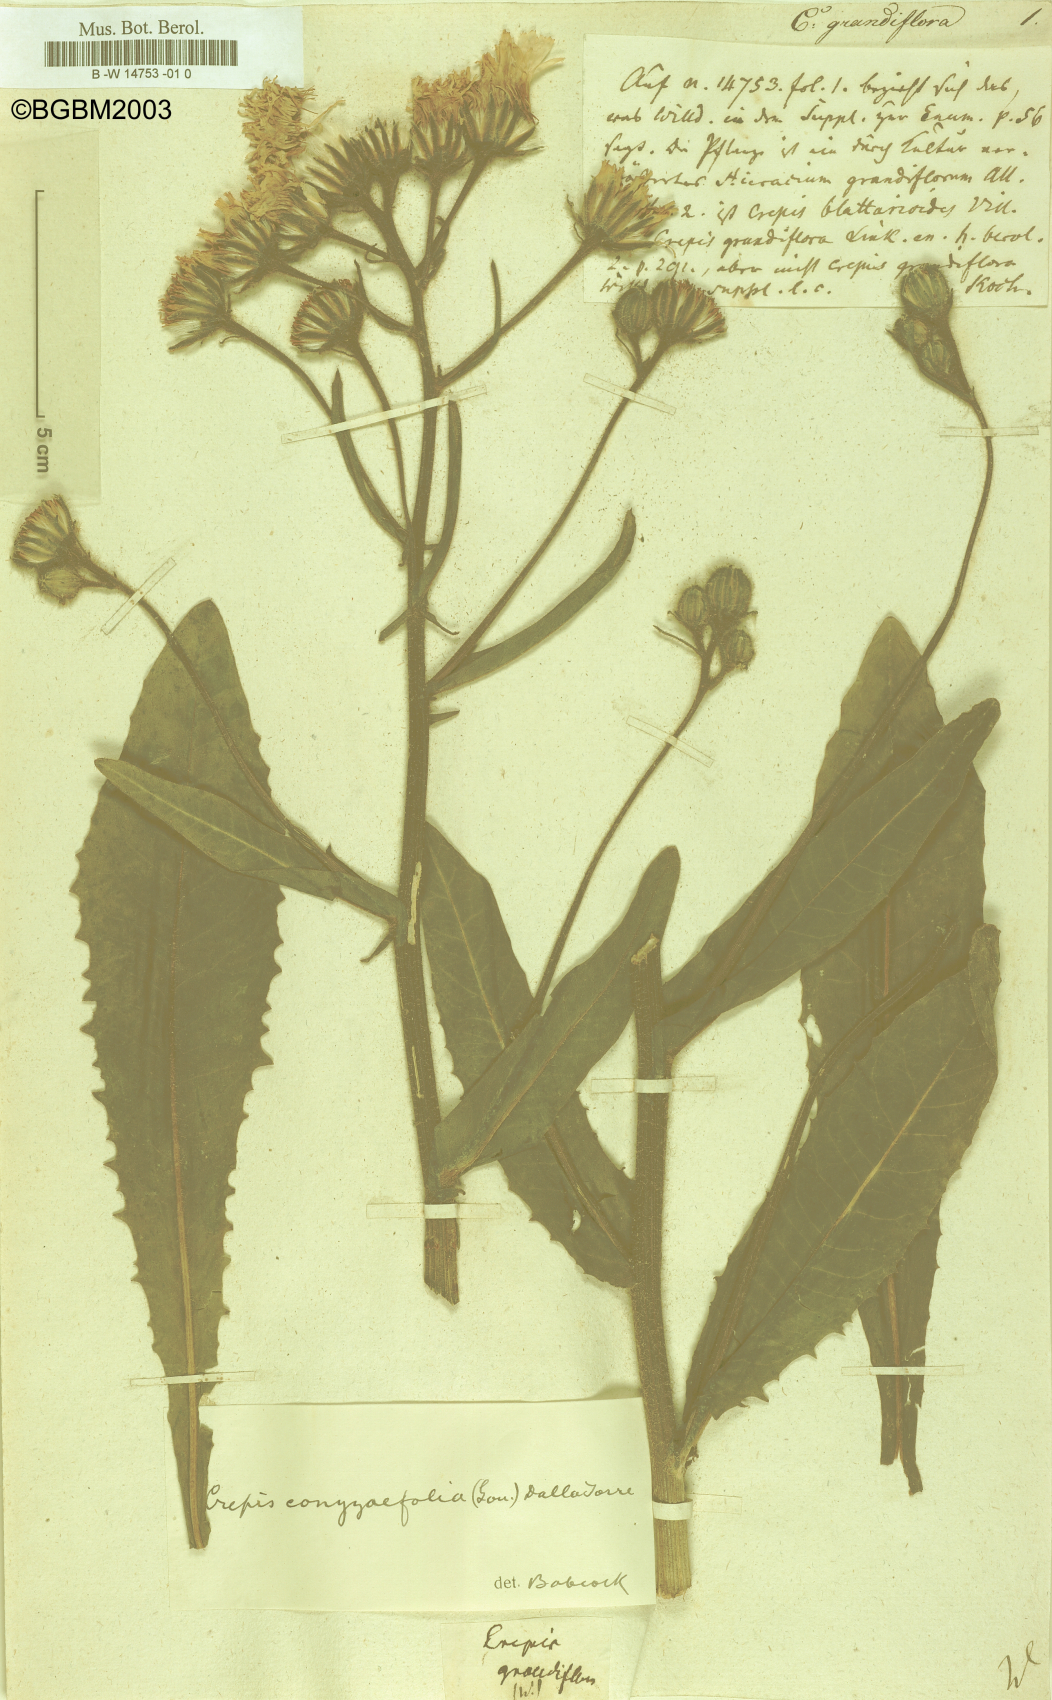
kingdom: Plantae
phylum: Tracheophyta
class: Magnoliopsida
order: Asterales
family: Asteraceae
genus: Crepis
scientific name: Crepis pyrenaica
